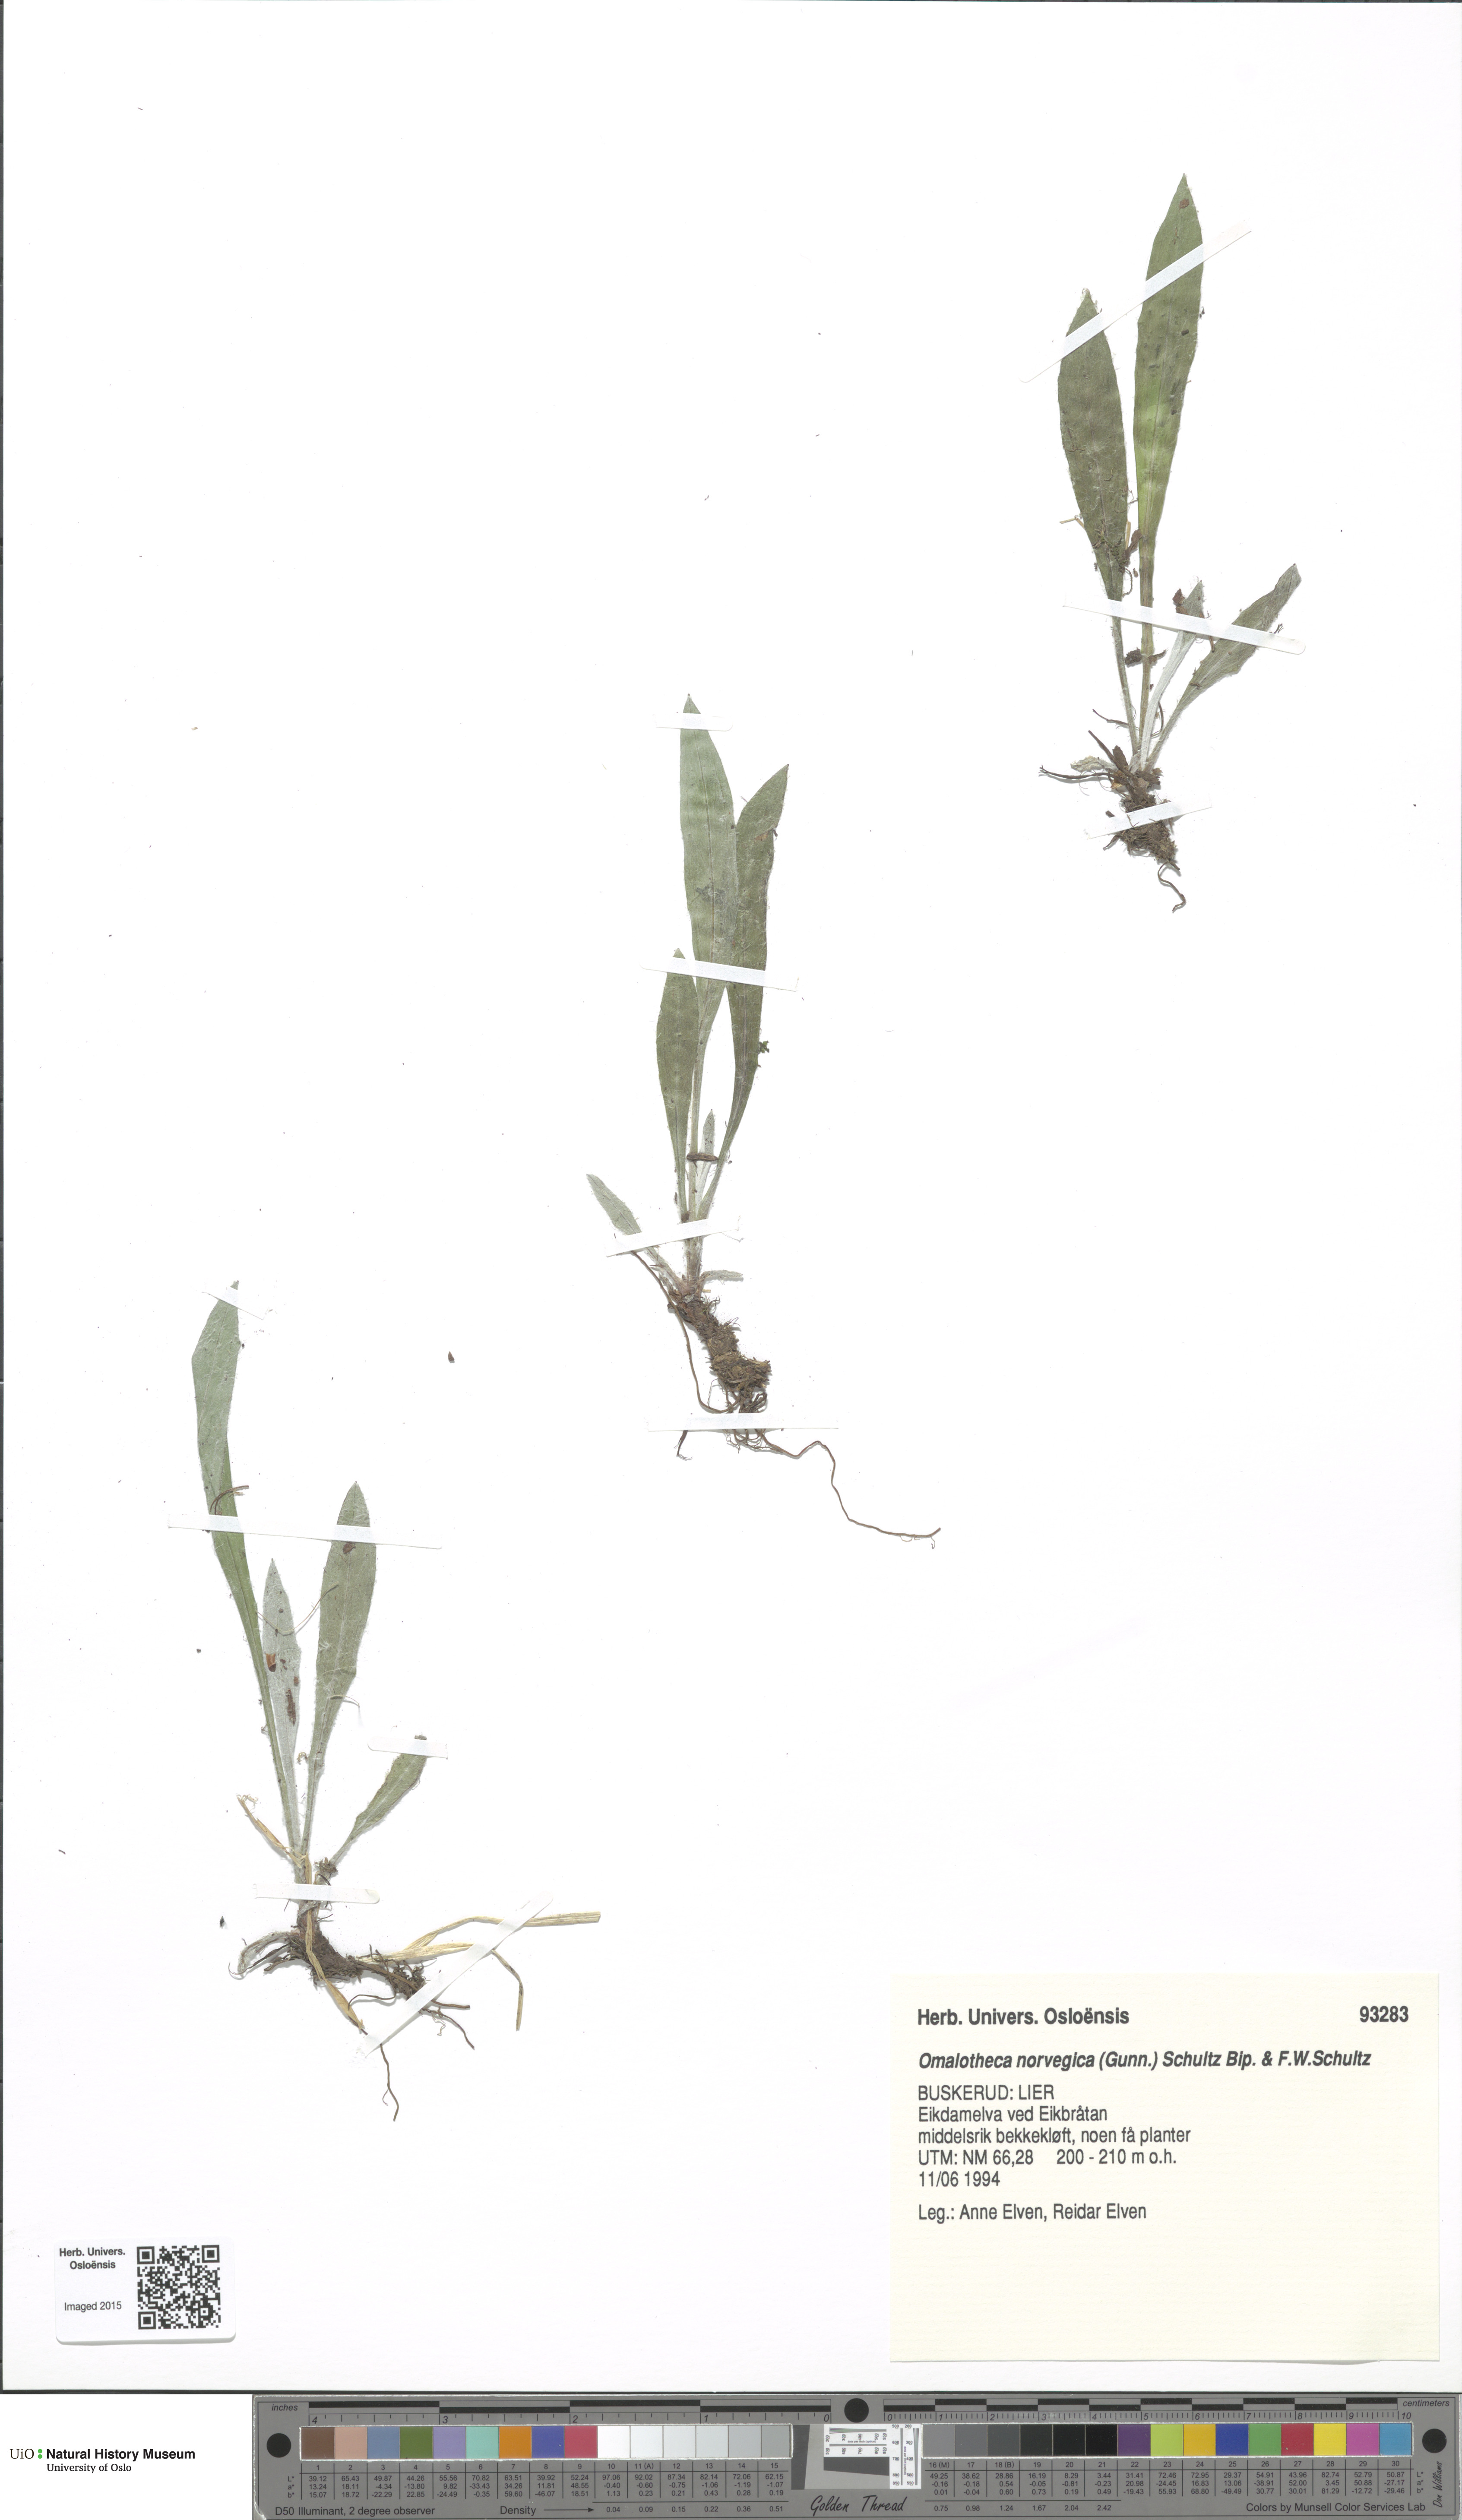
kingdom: Plantae
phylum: Tracheophyta
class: Magnoliopsida
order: Asterales
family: Asteraceae
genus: Omalotheca
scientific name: Omalotheca norvegica
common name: Norwegian arctic-cudweed
